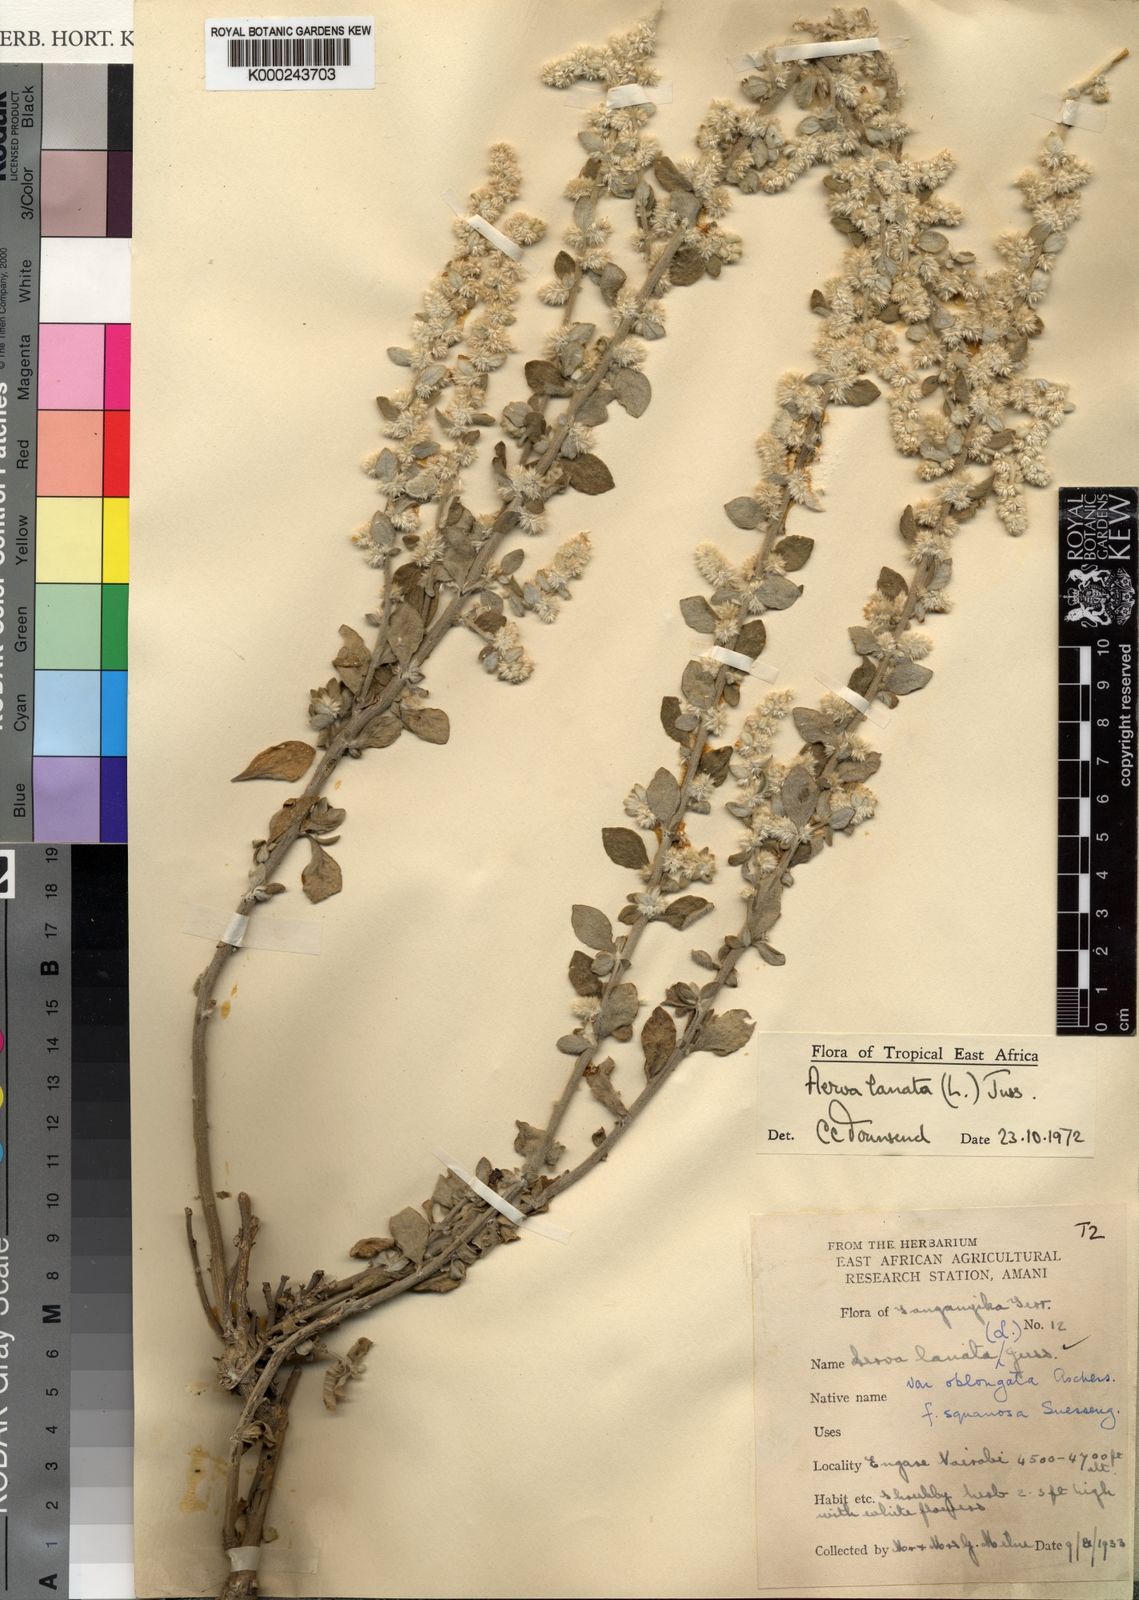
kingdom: Plantae
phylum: Tracheophyta
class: Magnoliopsida
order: Caryophyllales
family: Amaranthaceae
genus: Ouret
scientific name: Ouret lanata
